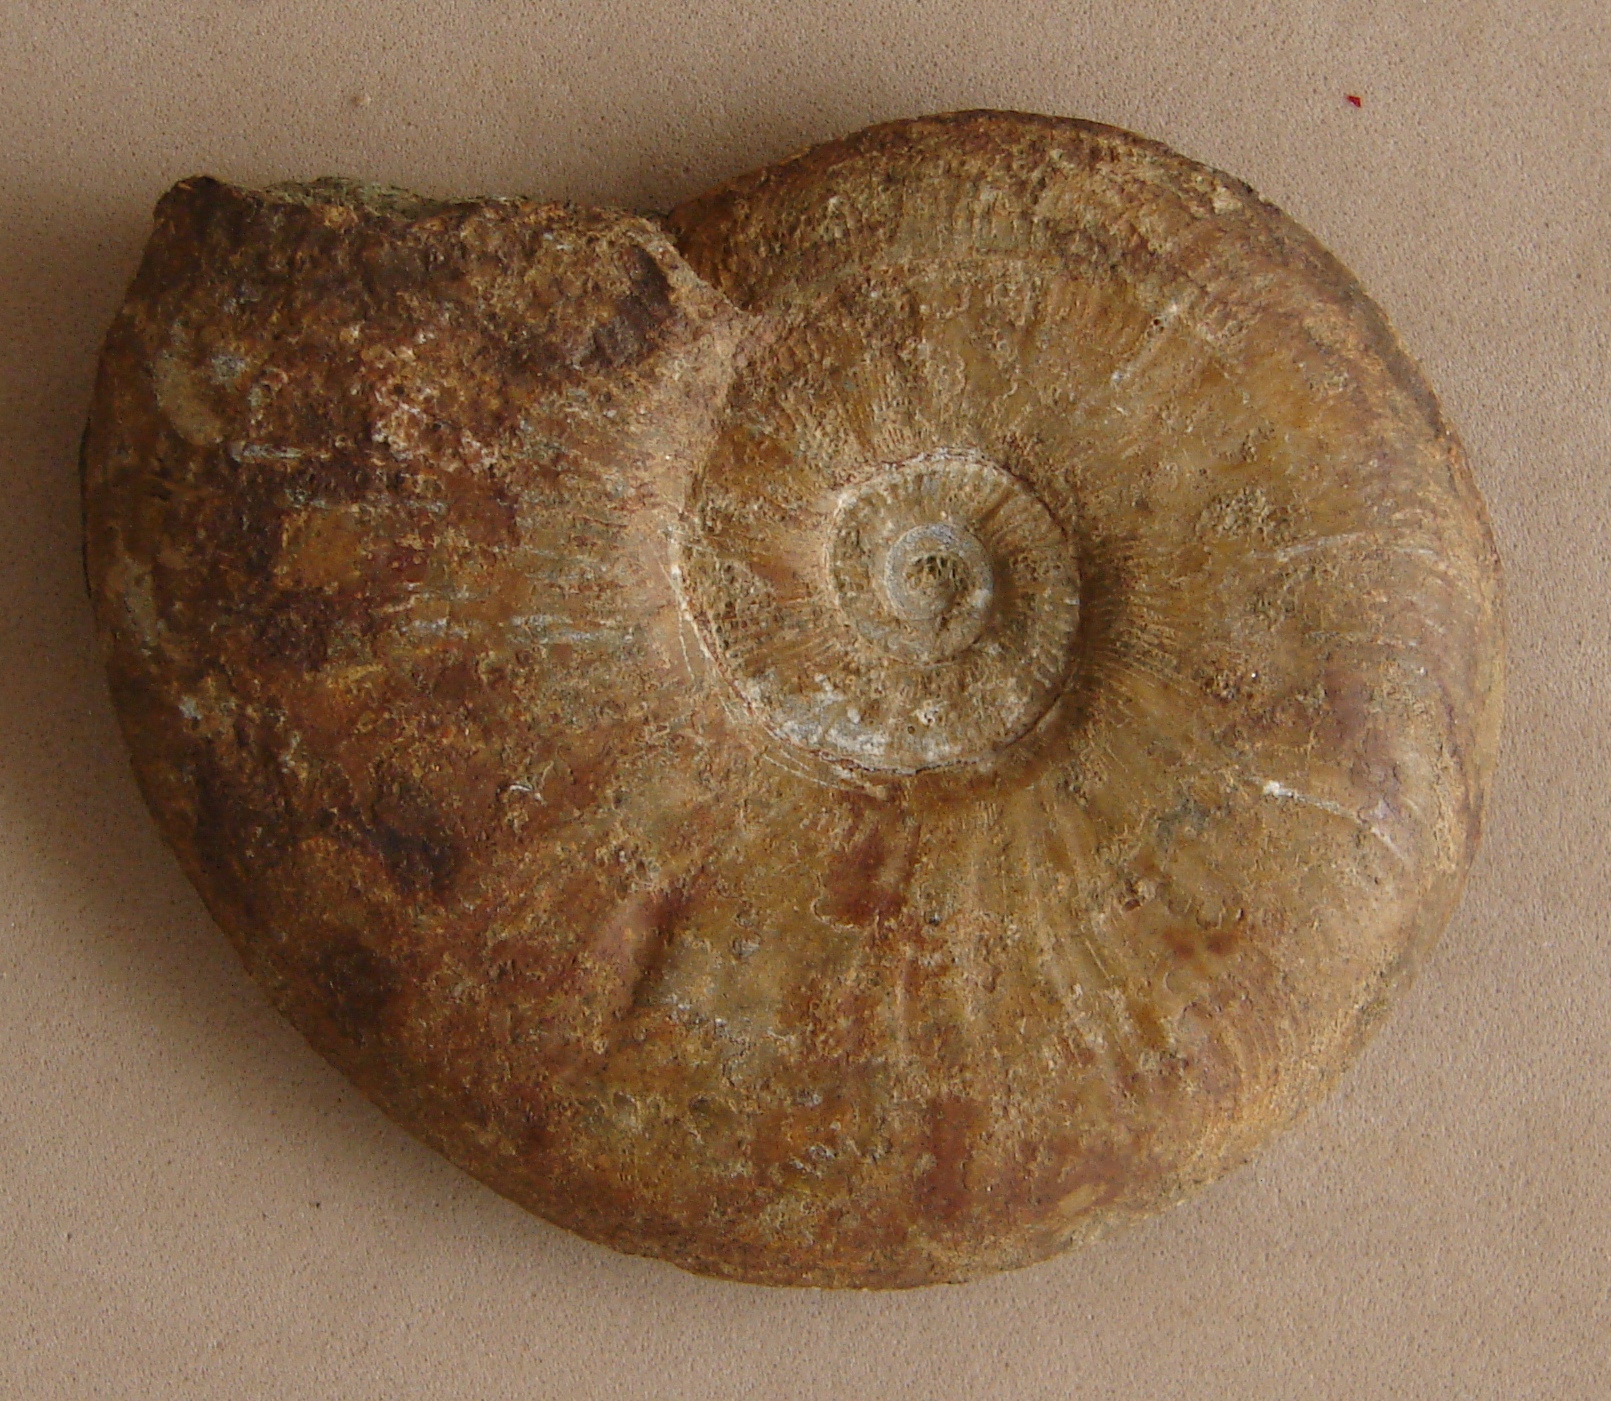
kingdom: Animalia
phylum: Mollusca
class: Cephalopoda
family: Hildoceratidae
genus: Pleydellia
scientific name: Pleydellia misera
